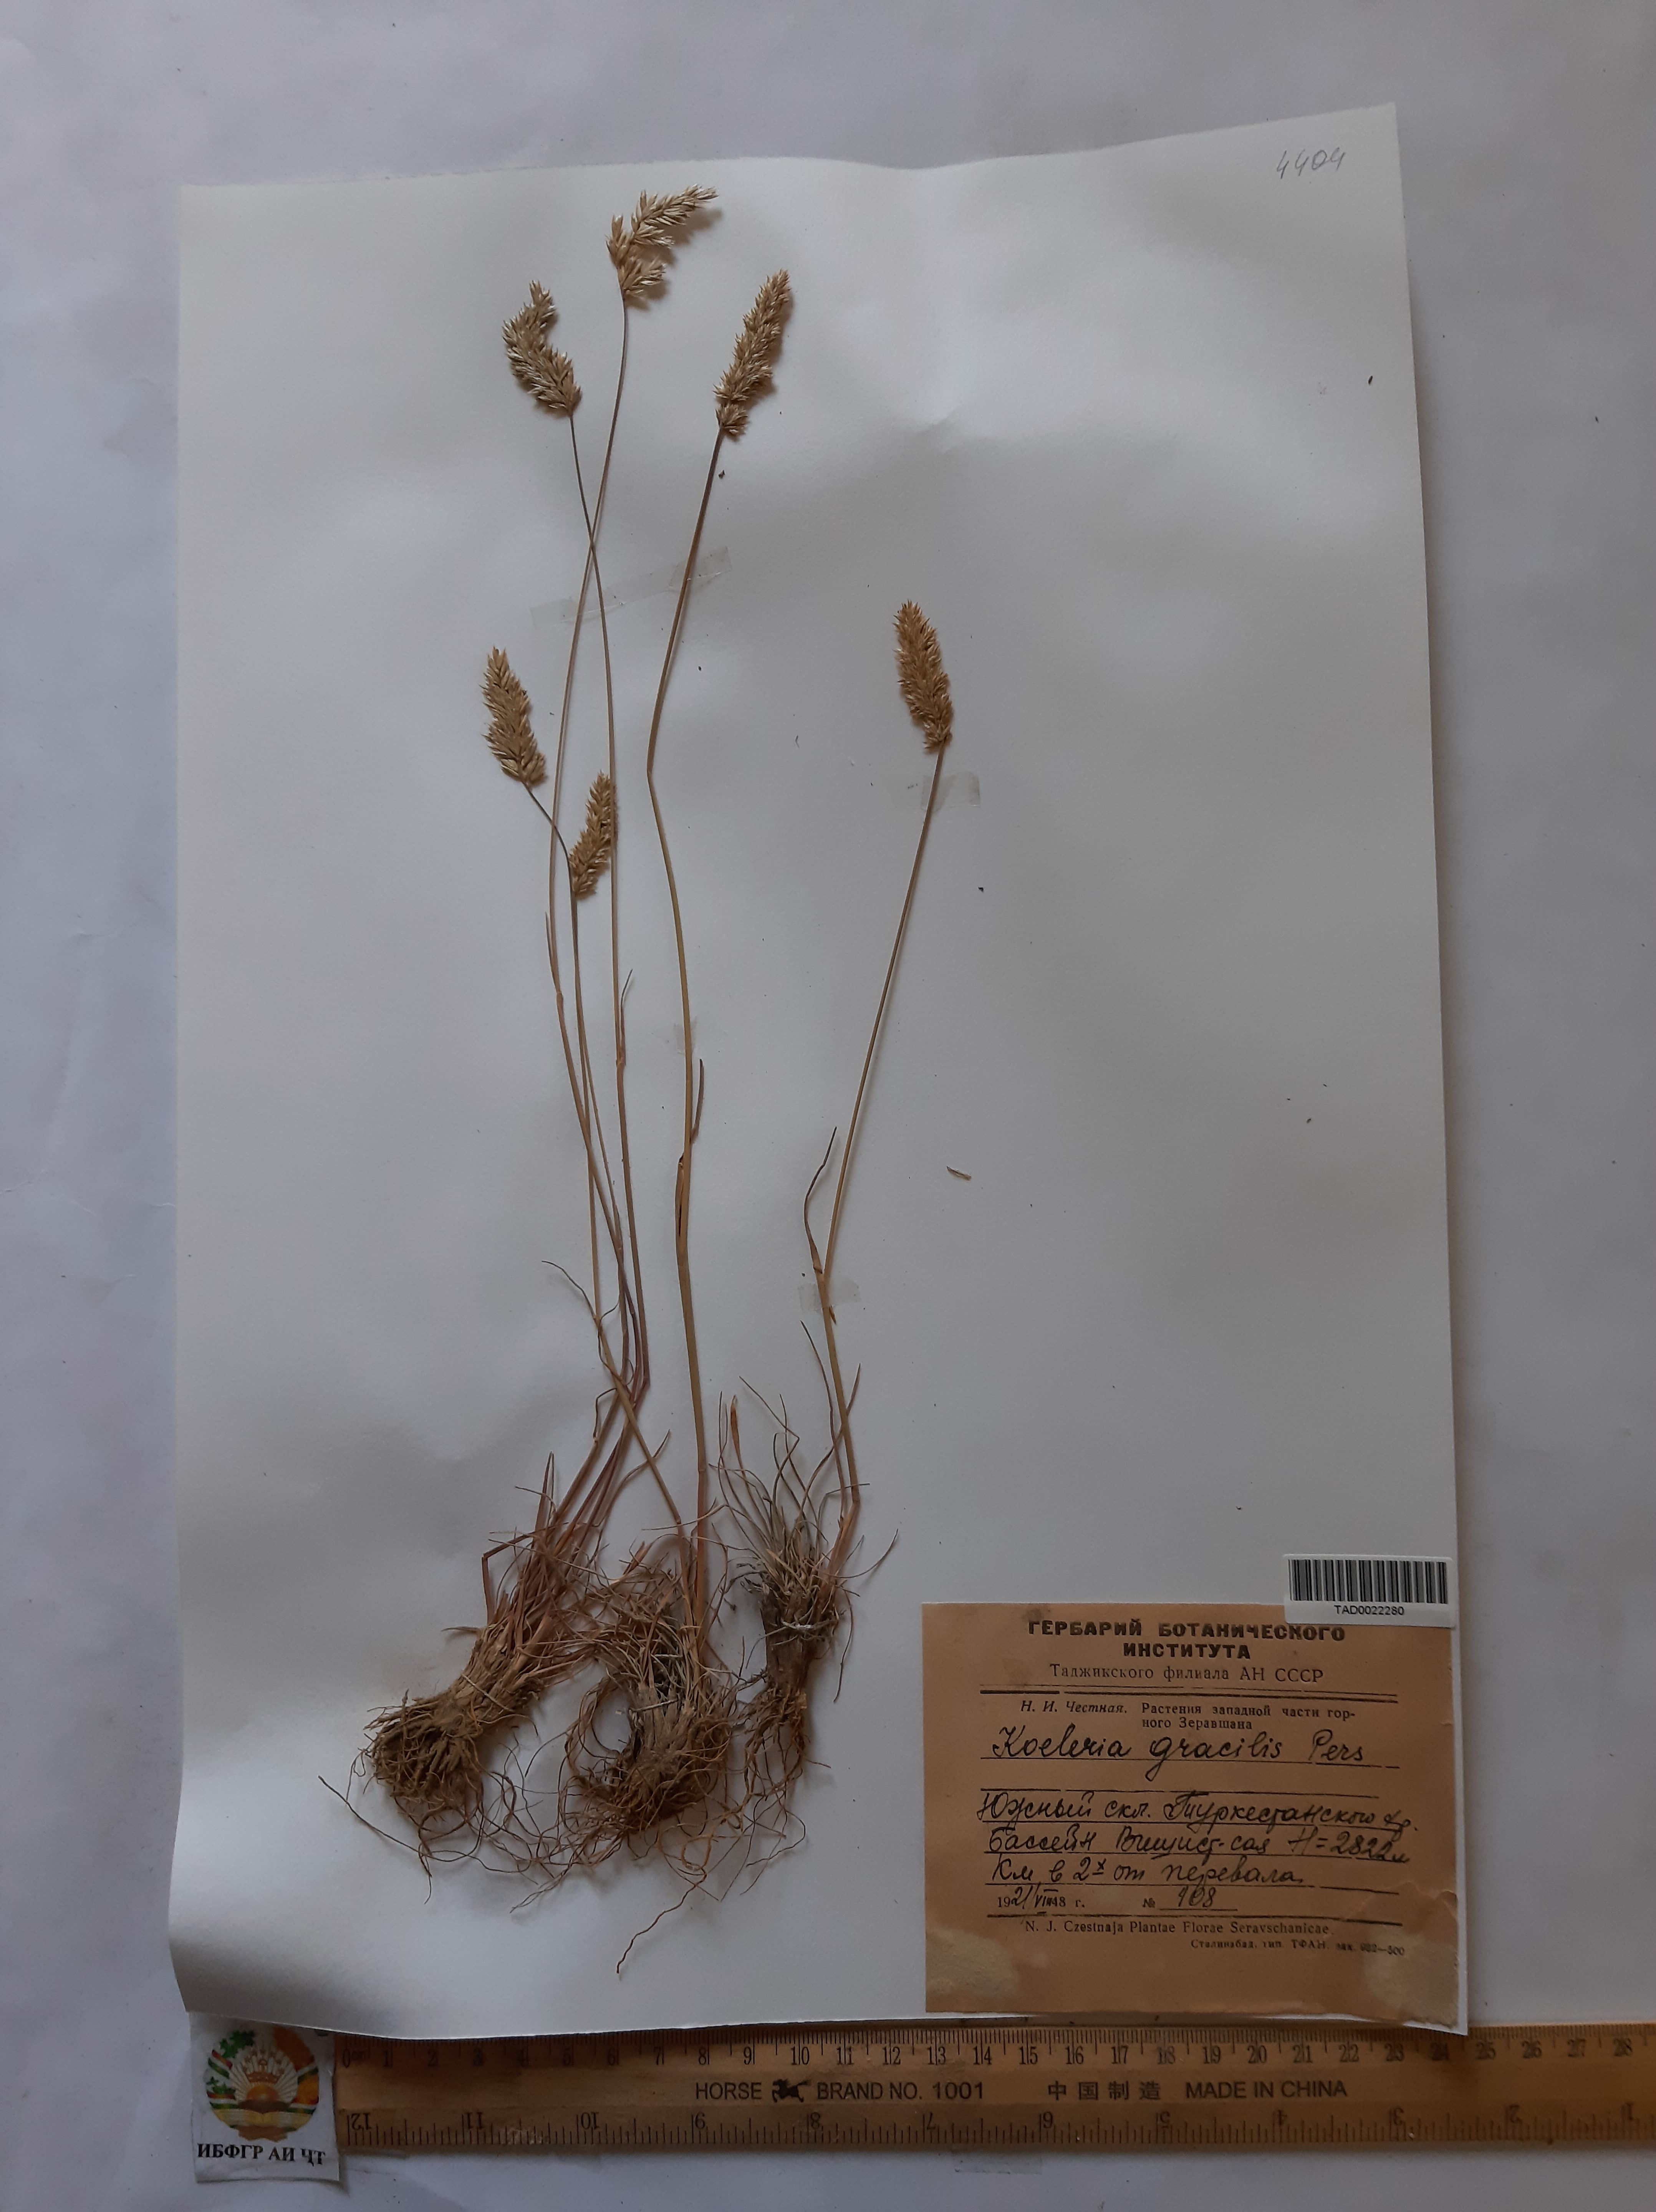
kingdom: Plantae
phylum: Tracheophyta
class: Liliopsida
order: Poales
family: Poaceae
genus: Koeleria
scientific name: Koeleria macrantha
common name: Crested hair-grass
